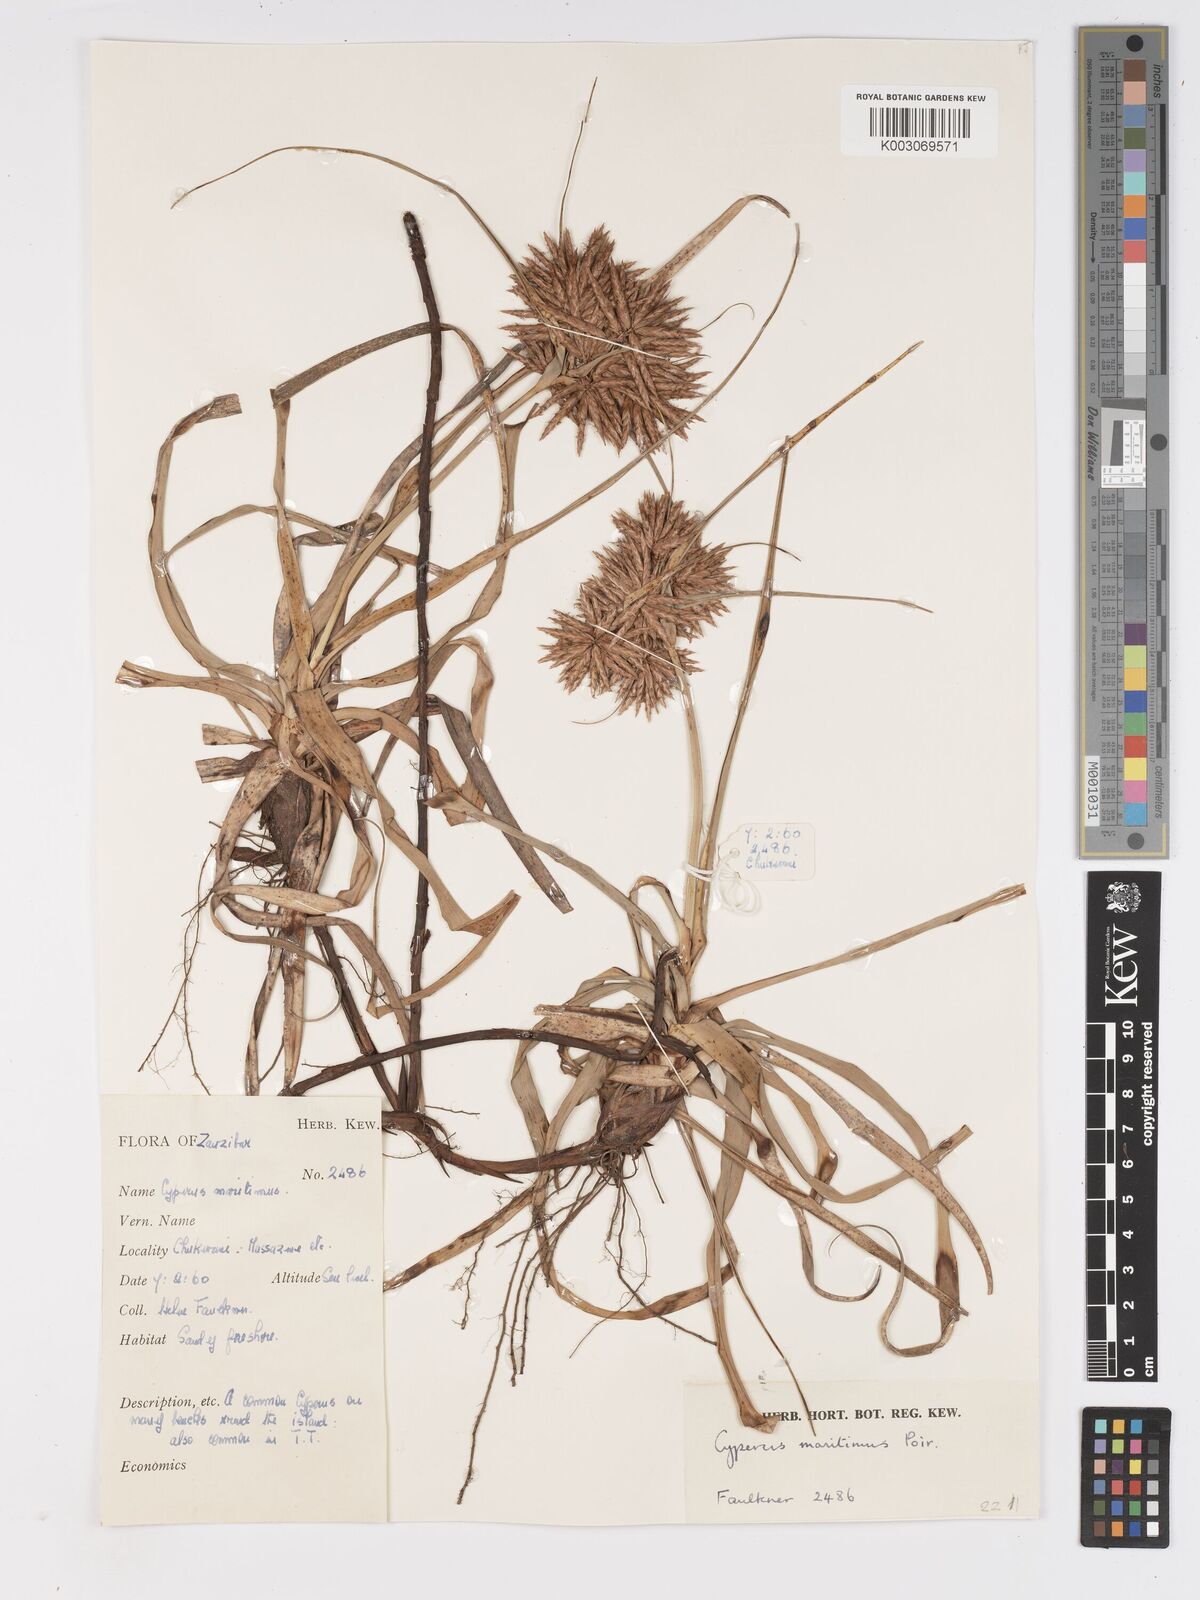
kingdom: Plantae
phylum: Tracheophyta
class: Liliopsida
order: Poales
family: Cyperaceae
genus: Cyperus
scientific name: Cyperus crassipes
